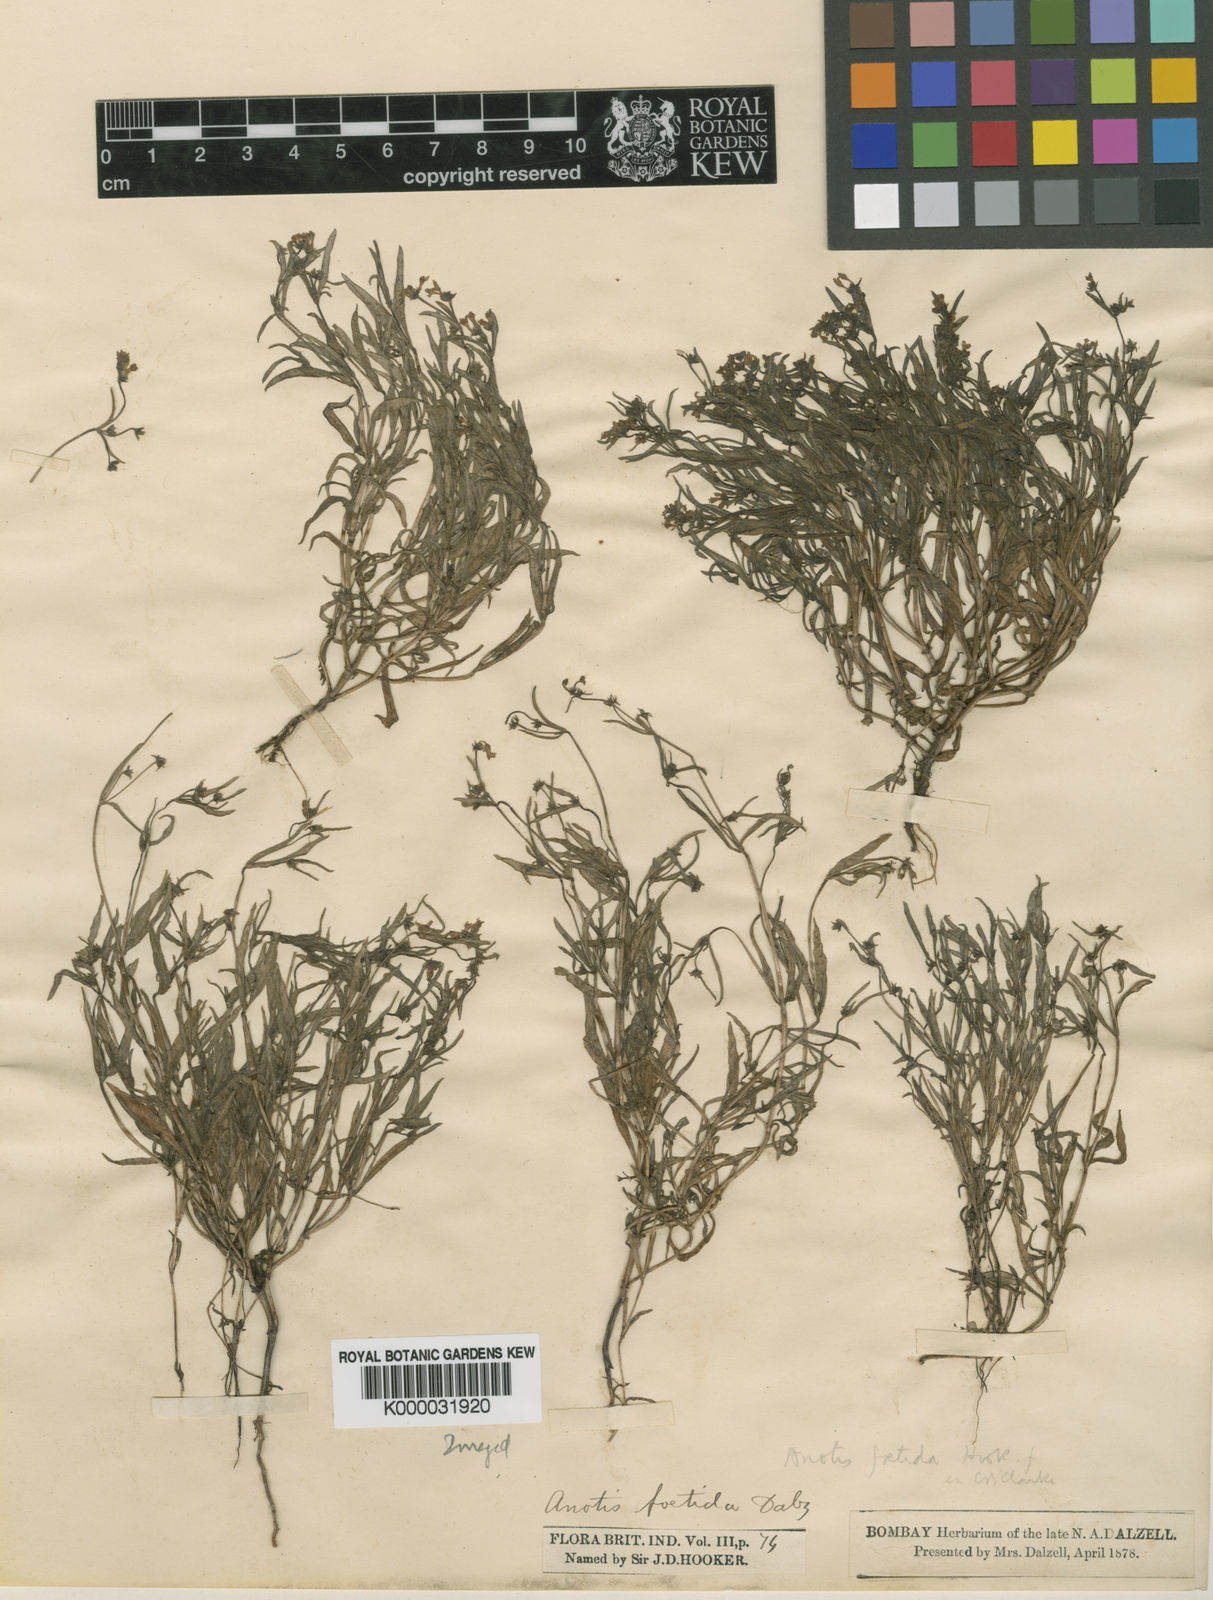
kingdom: Plantae
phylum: Tracheophyta
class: Magnoliopsida
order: Gentianales
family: Rubiaceae
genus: Neanotis
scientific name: Neanotis carnosa
